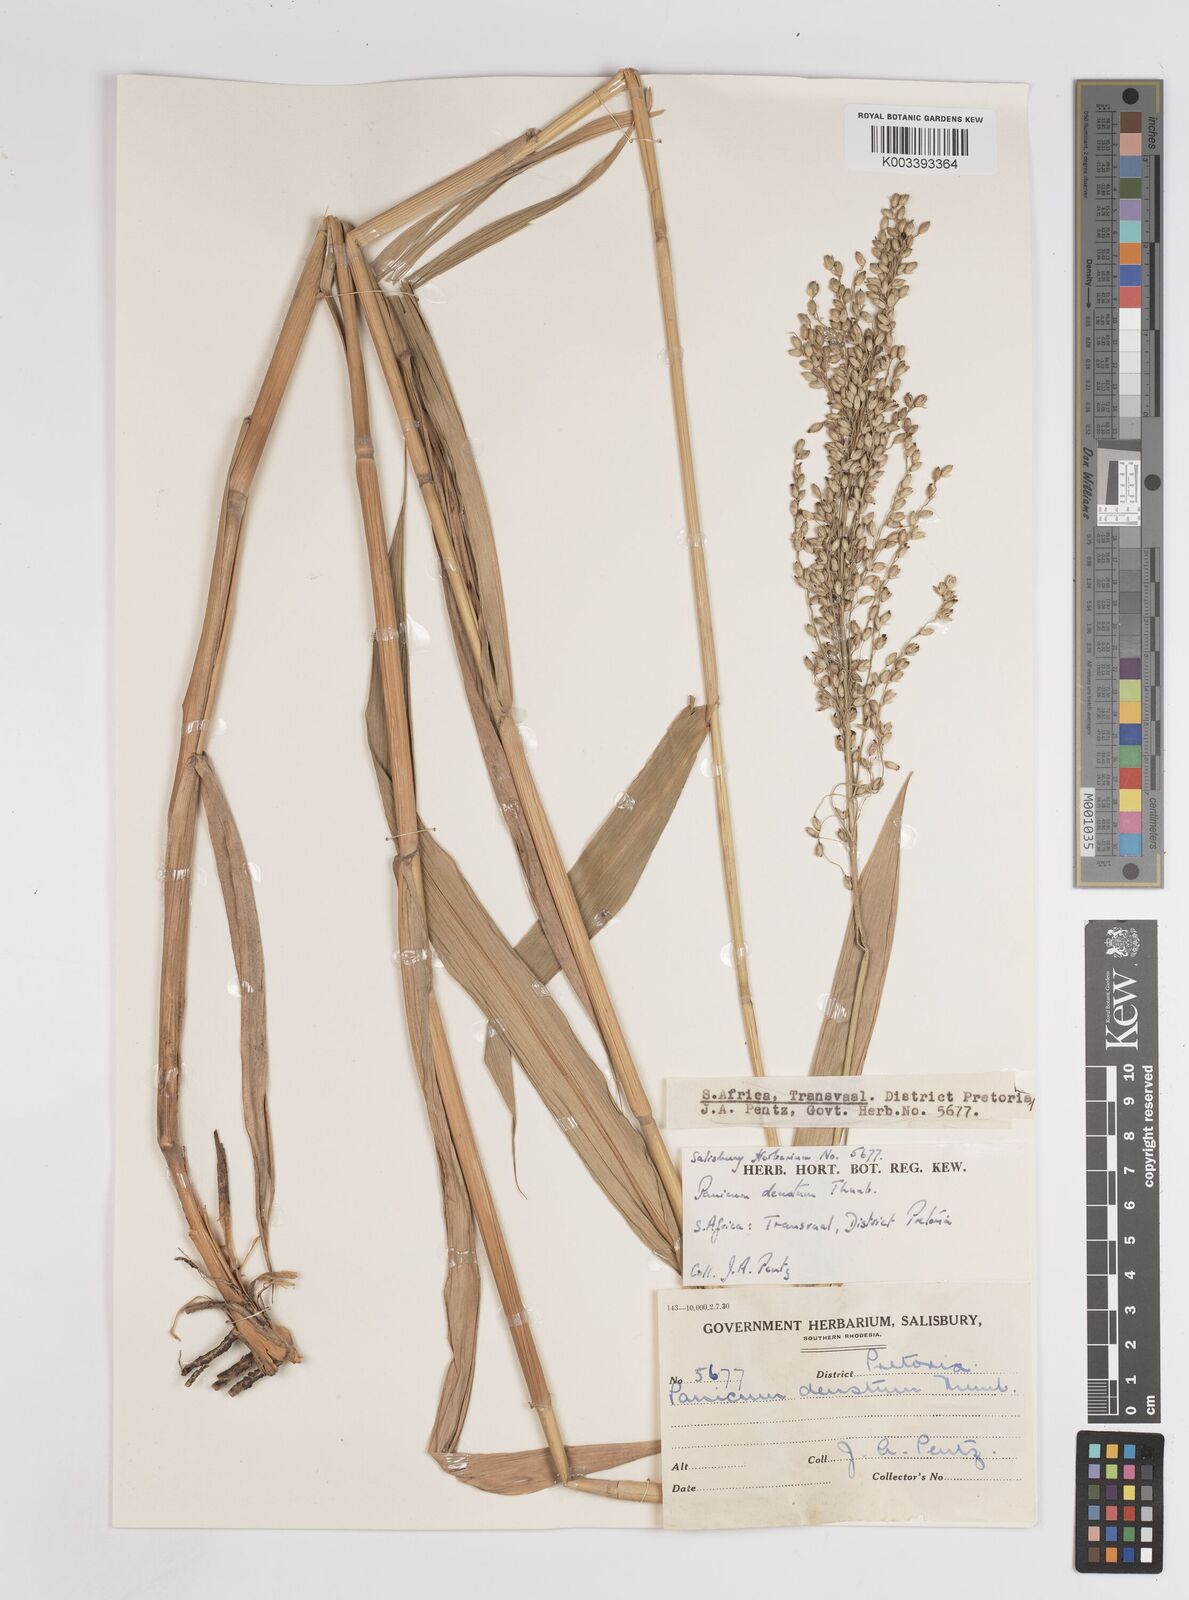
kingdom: Plantae
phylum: Tracheophyta
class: Liliopsida
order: Poales
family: Poaceae
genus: Panicum
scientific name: Panicum deustum
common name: Reed panicum
